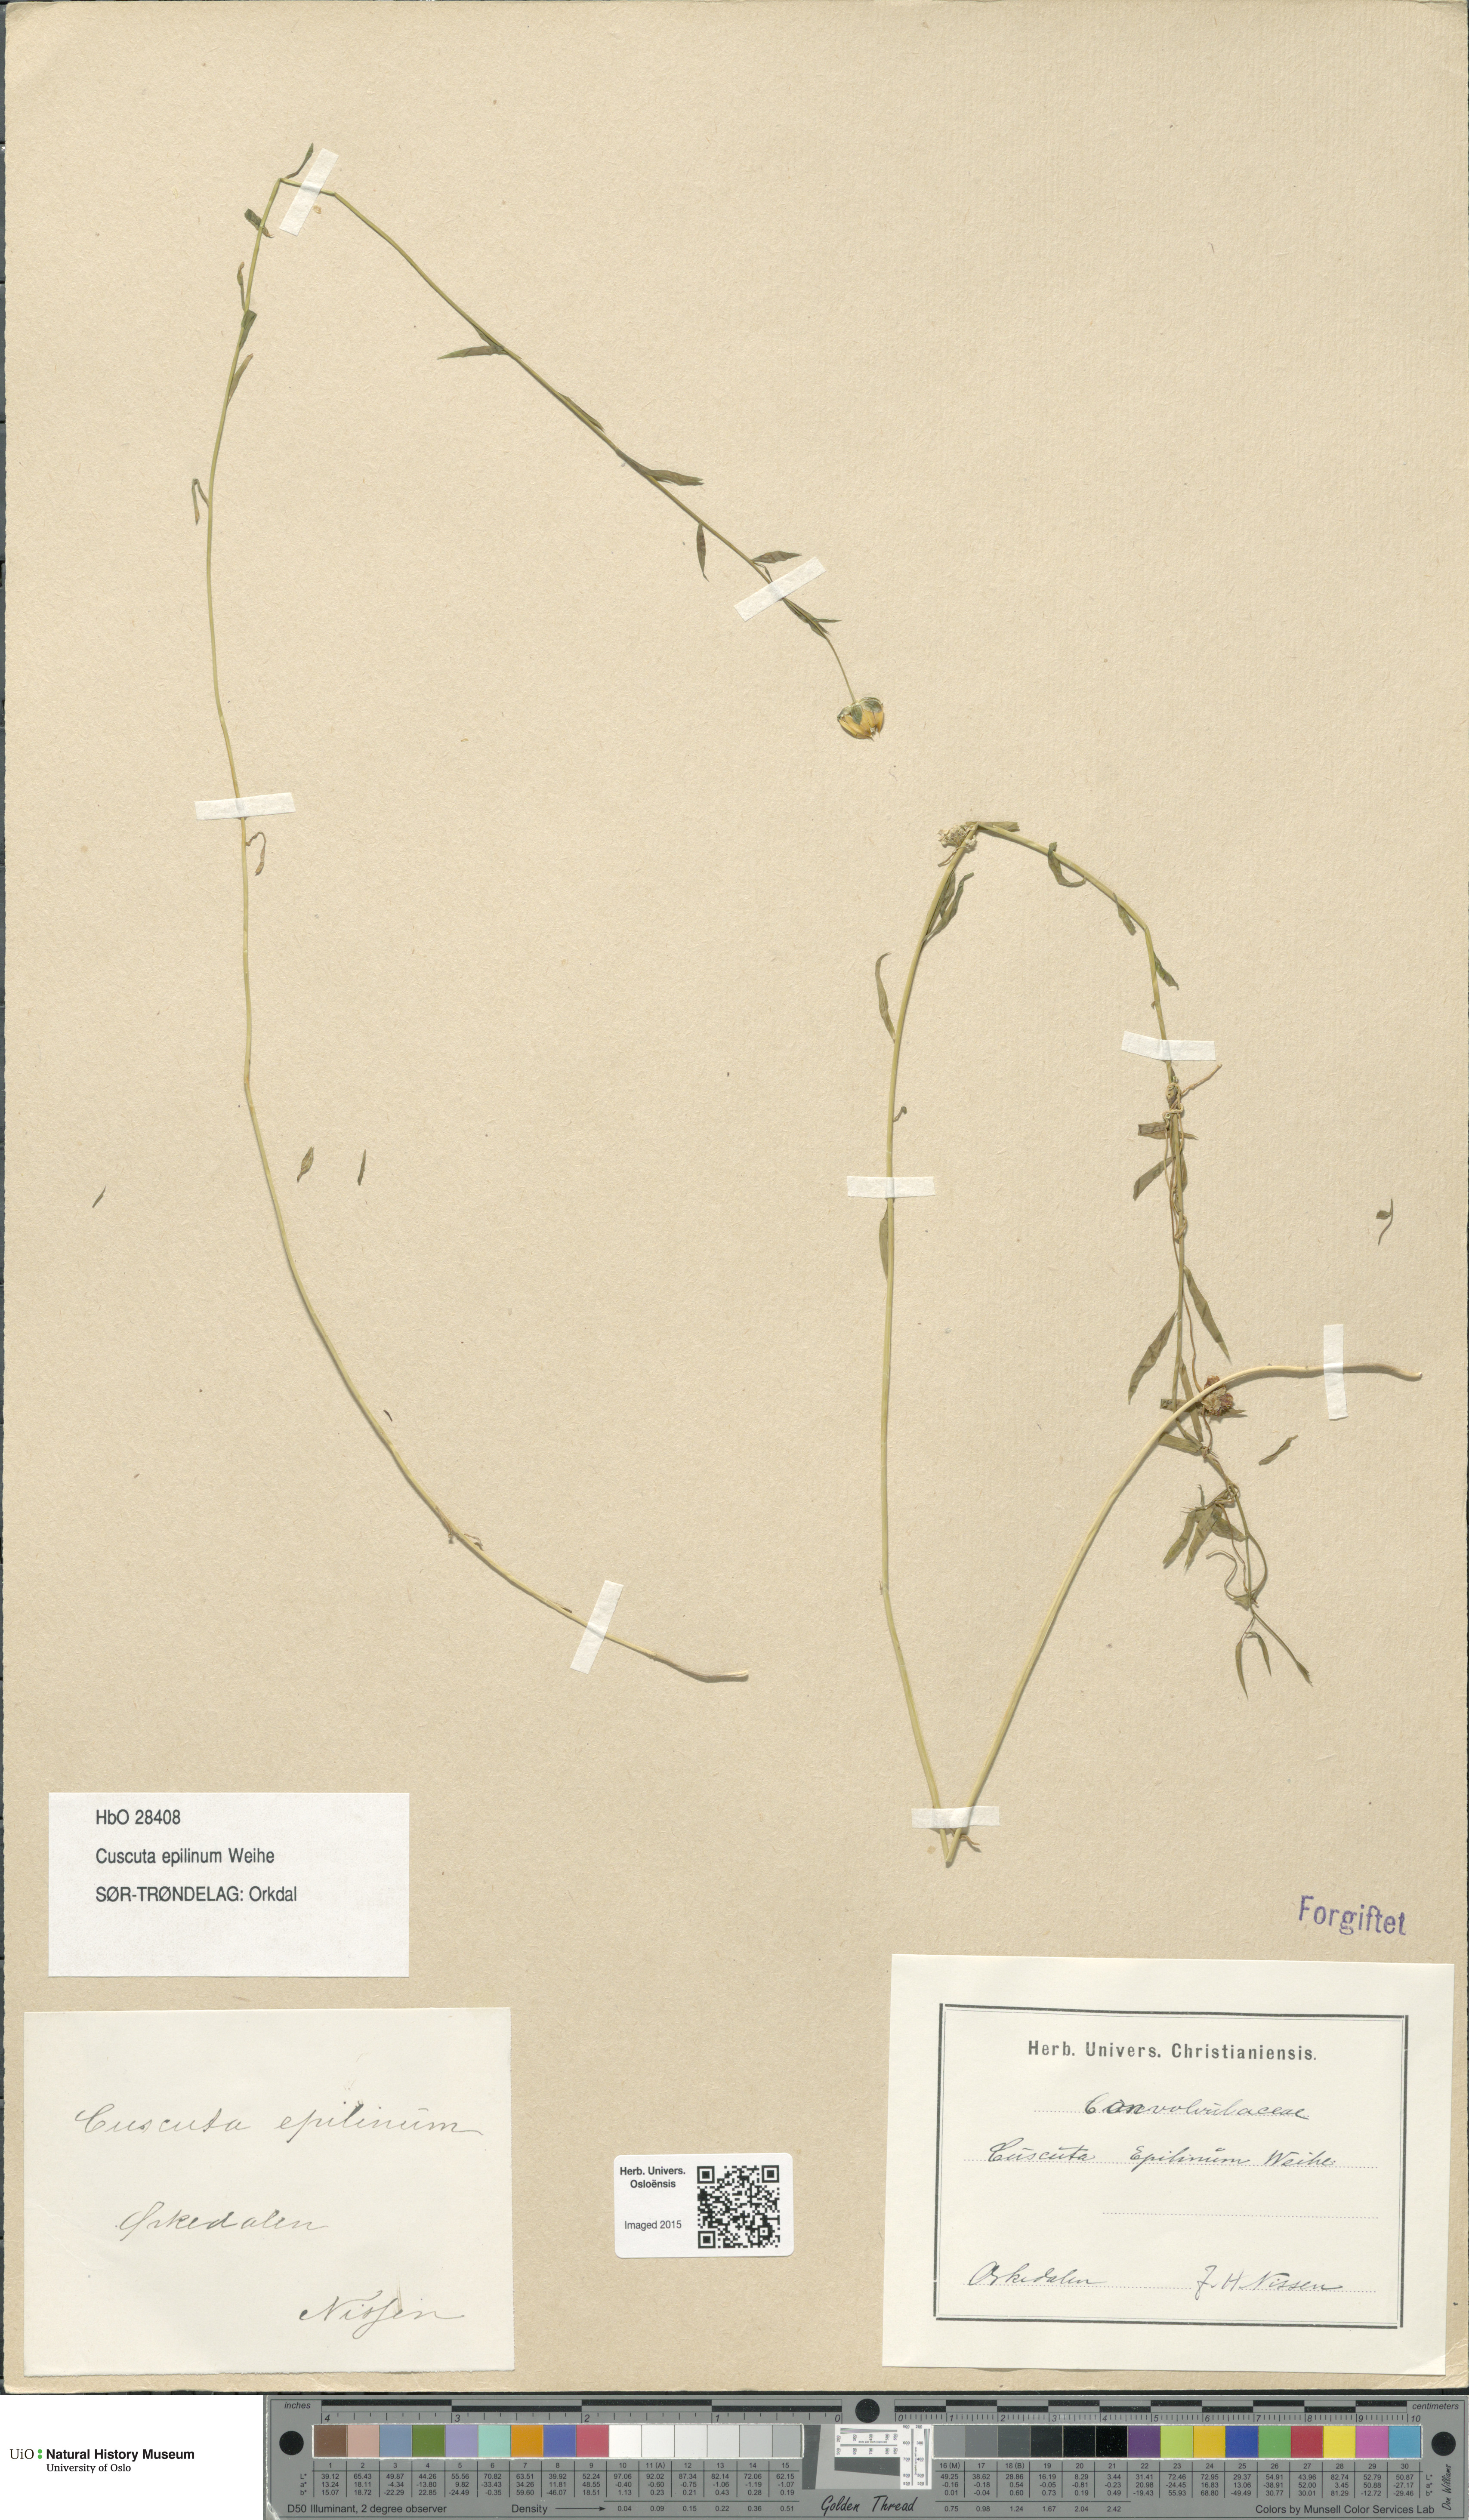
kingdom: Plantae
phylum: Tracheophyta
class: Magnoliopsida
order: Solanales
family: Convolvulaceae
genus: Cuscuta
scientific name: Cuscuta epilinum
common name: Flax dodder
